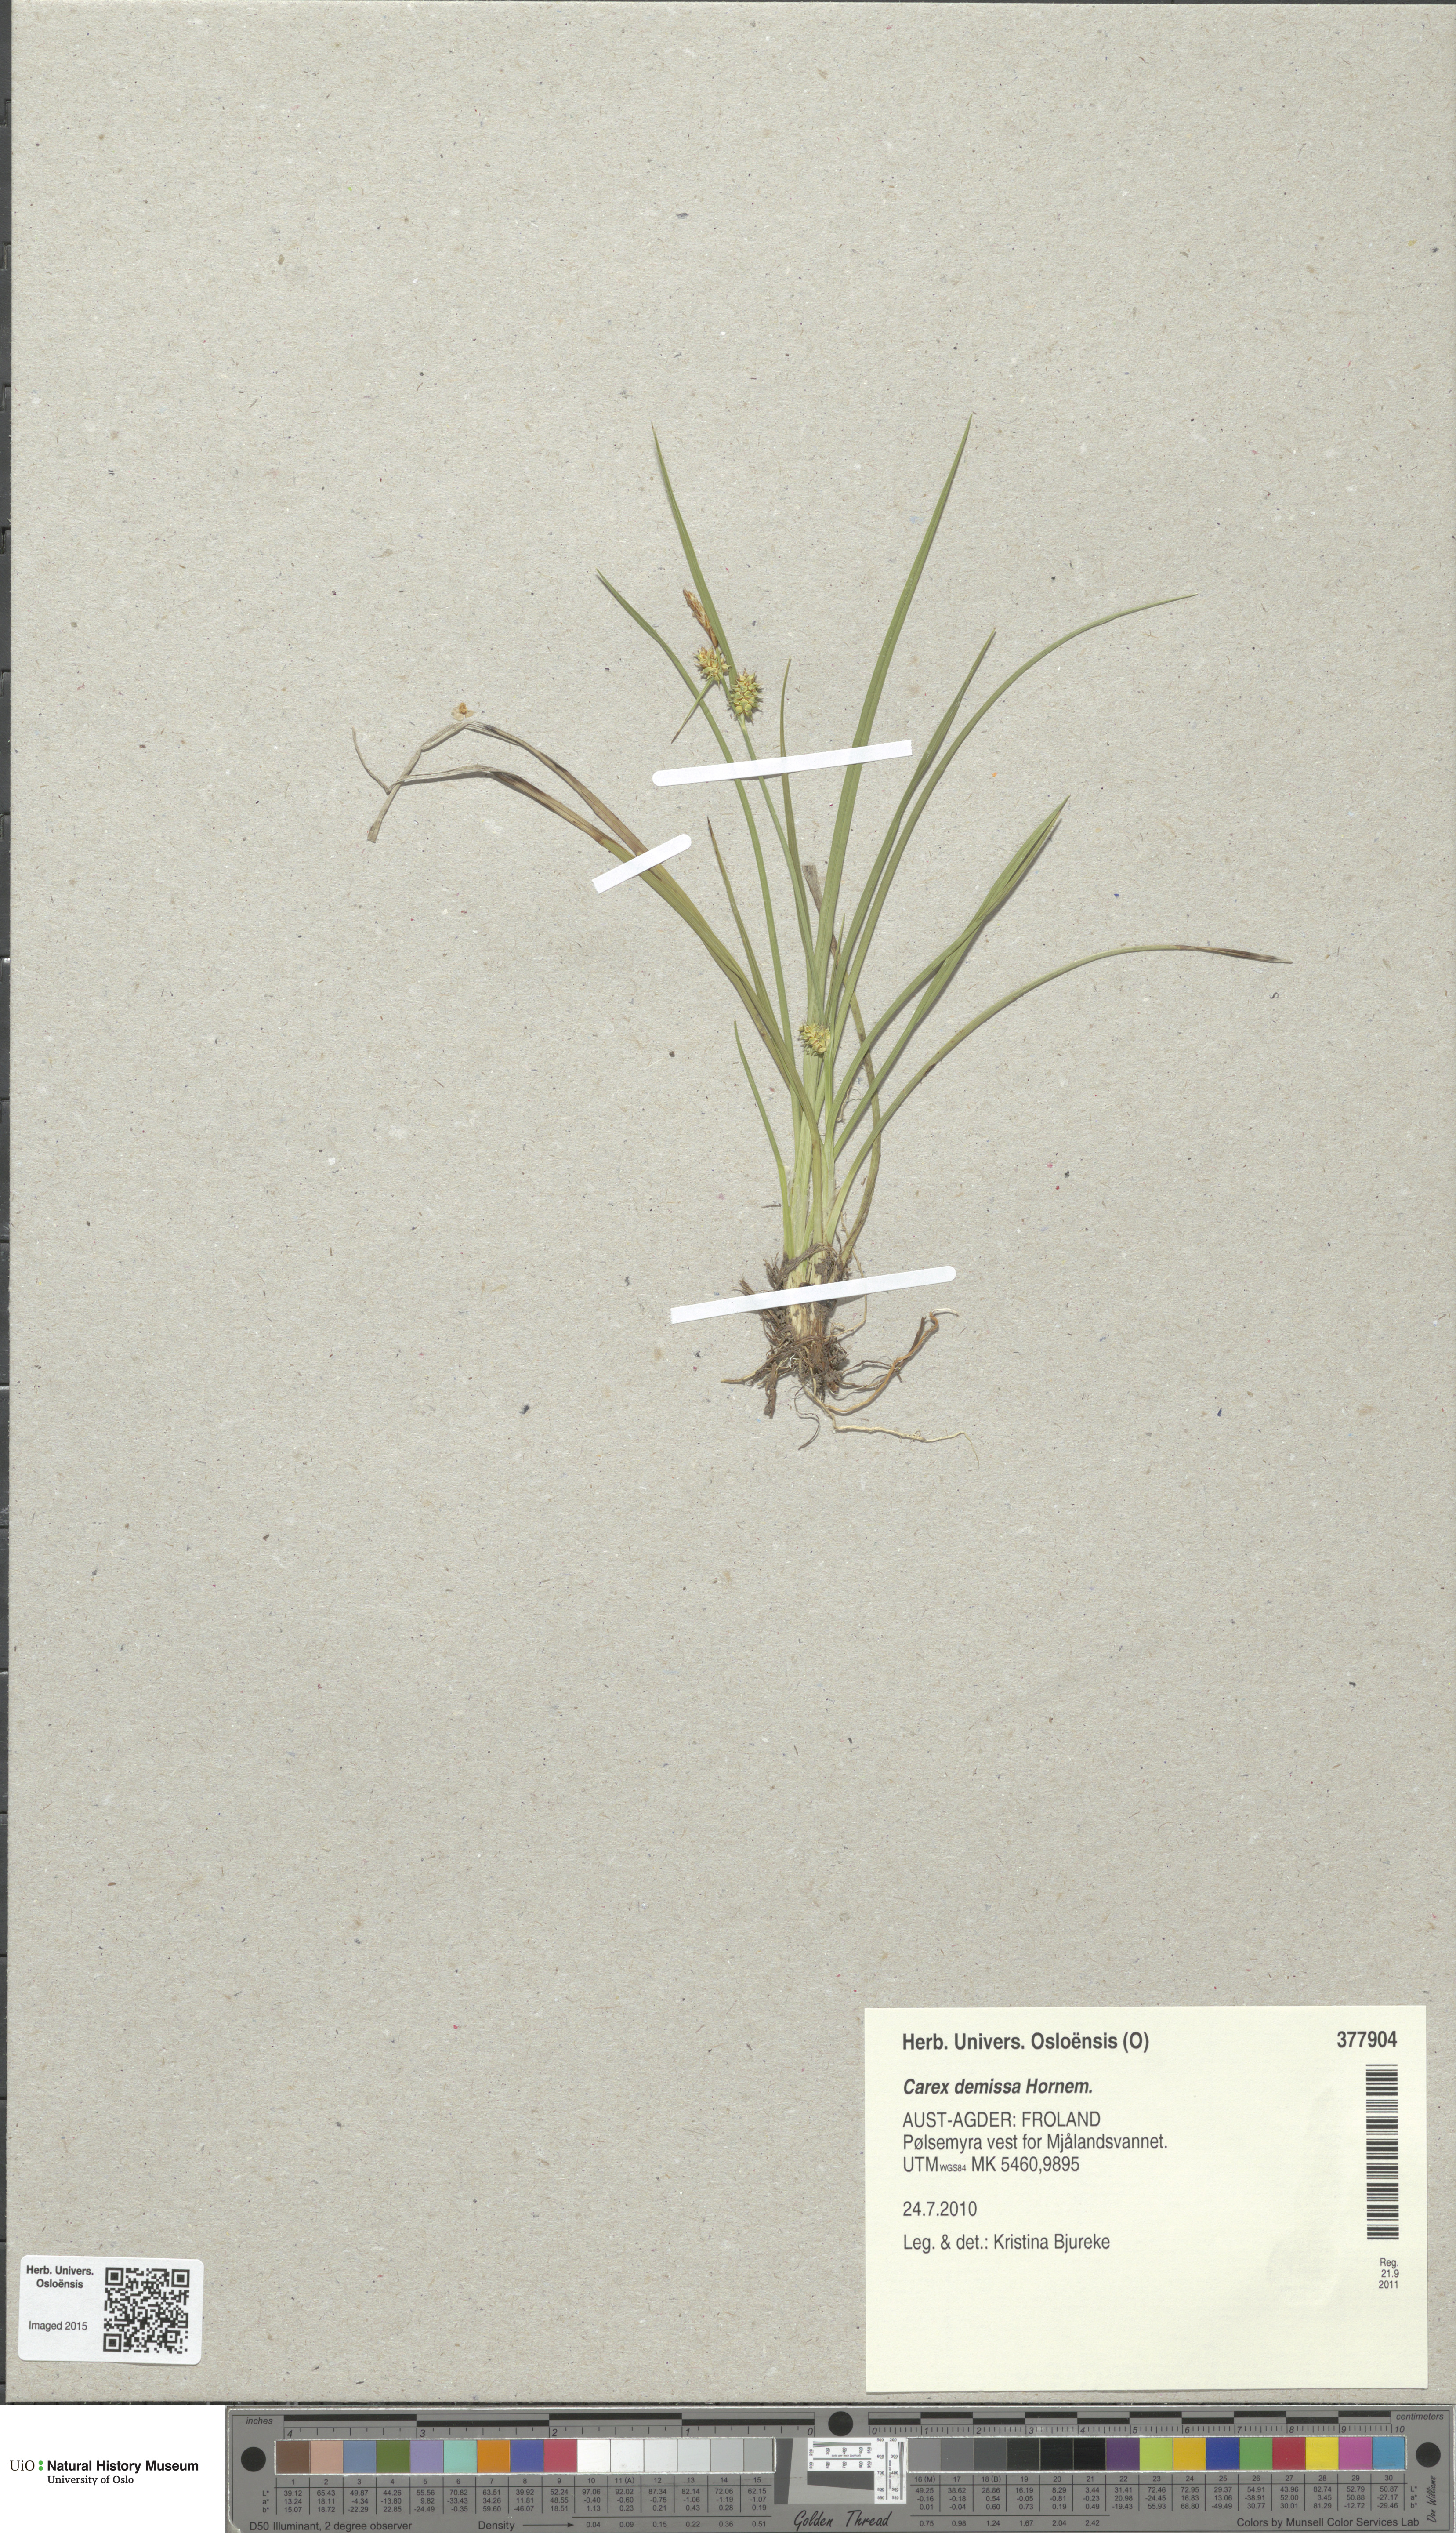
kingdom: Plantae
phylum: Tracheophyta
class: Liliopsida
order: Poales
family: Cyperaceae
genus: Carex
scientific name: Carex demissa
